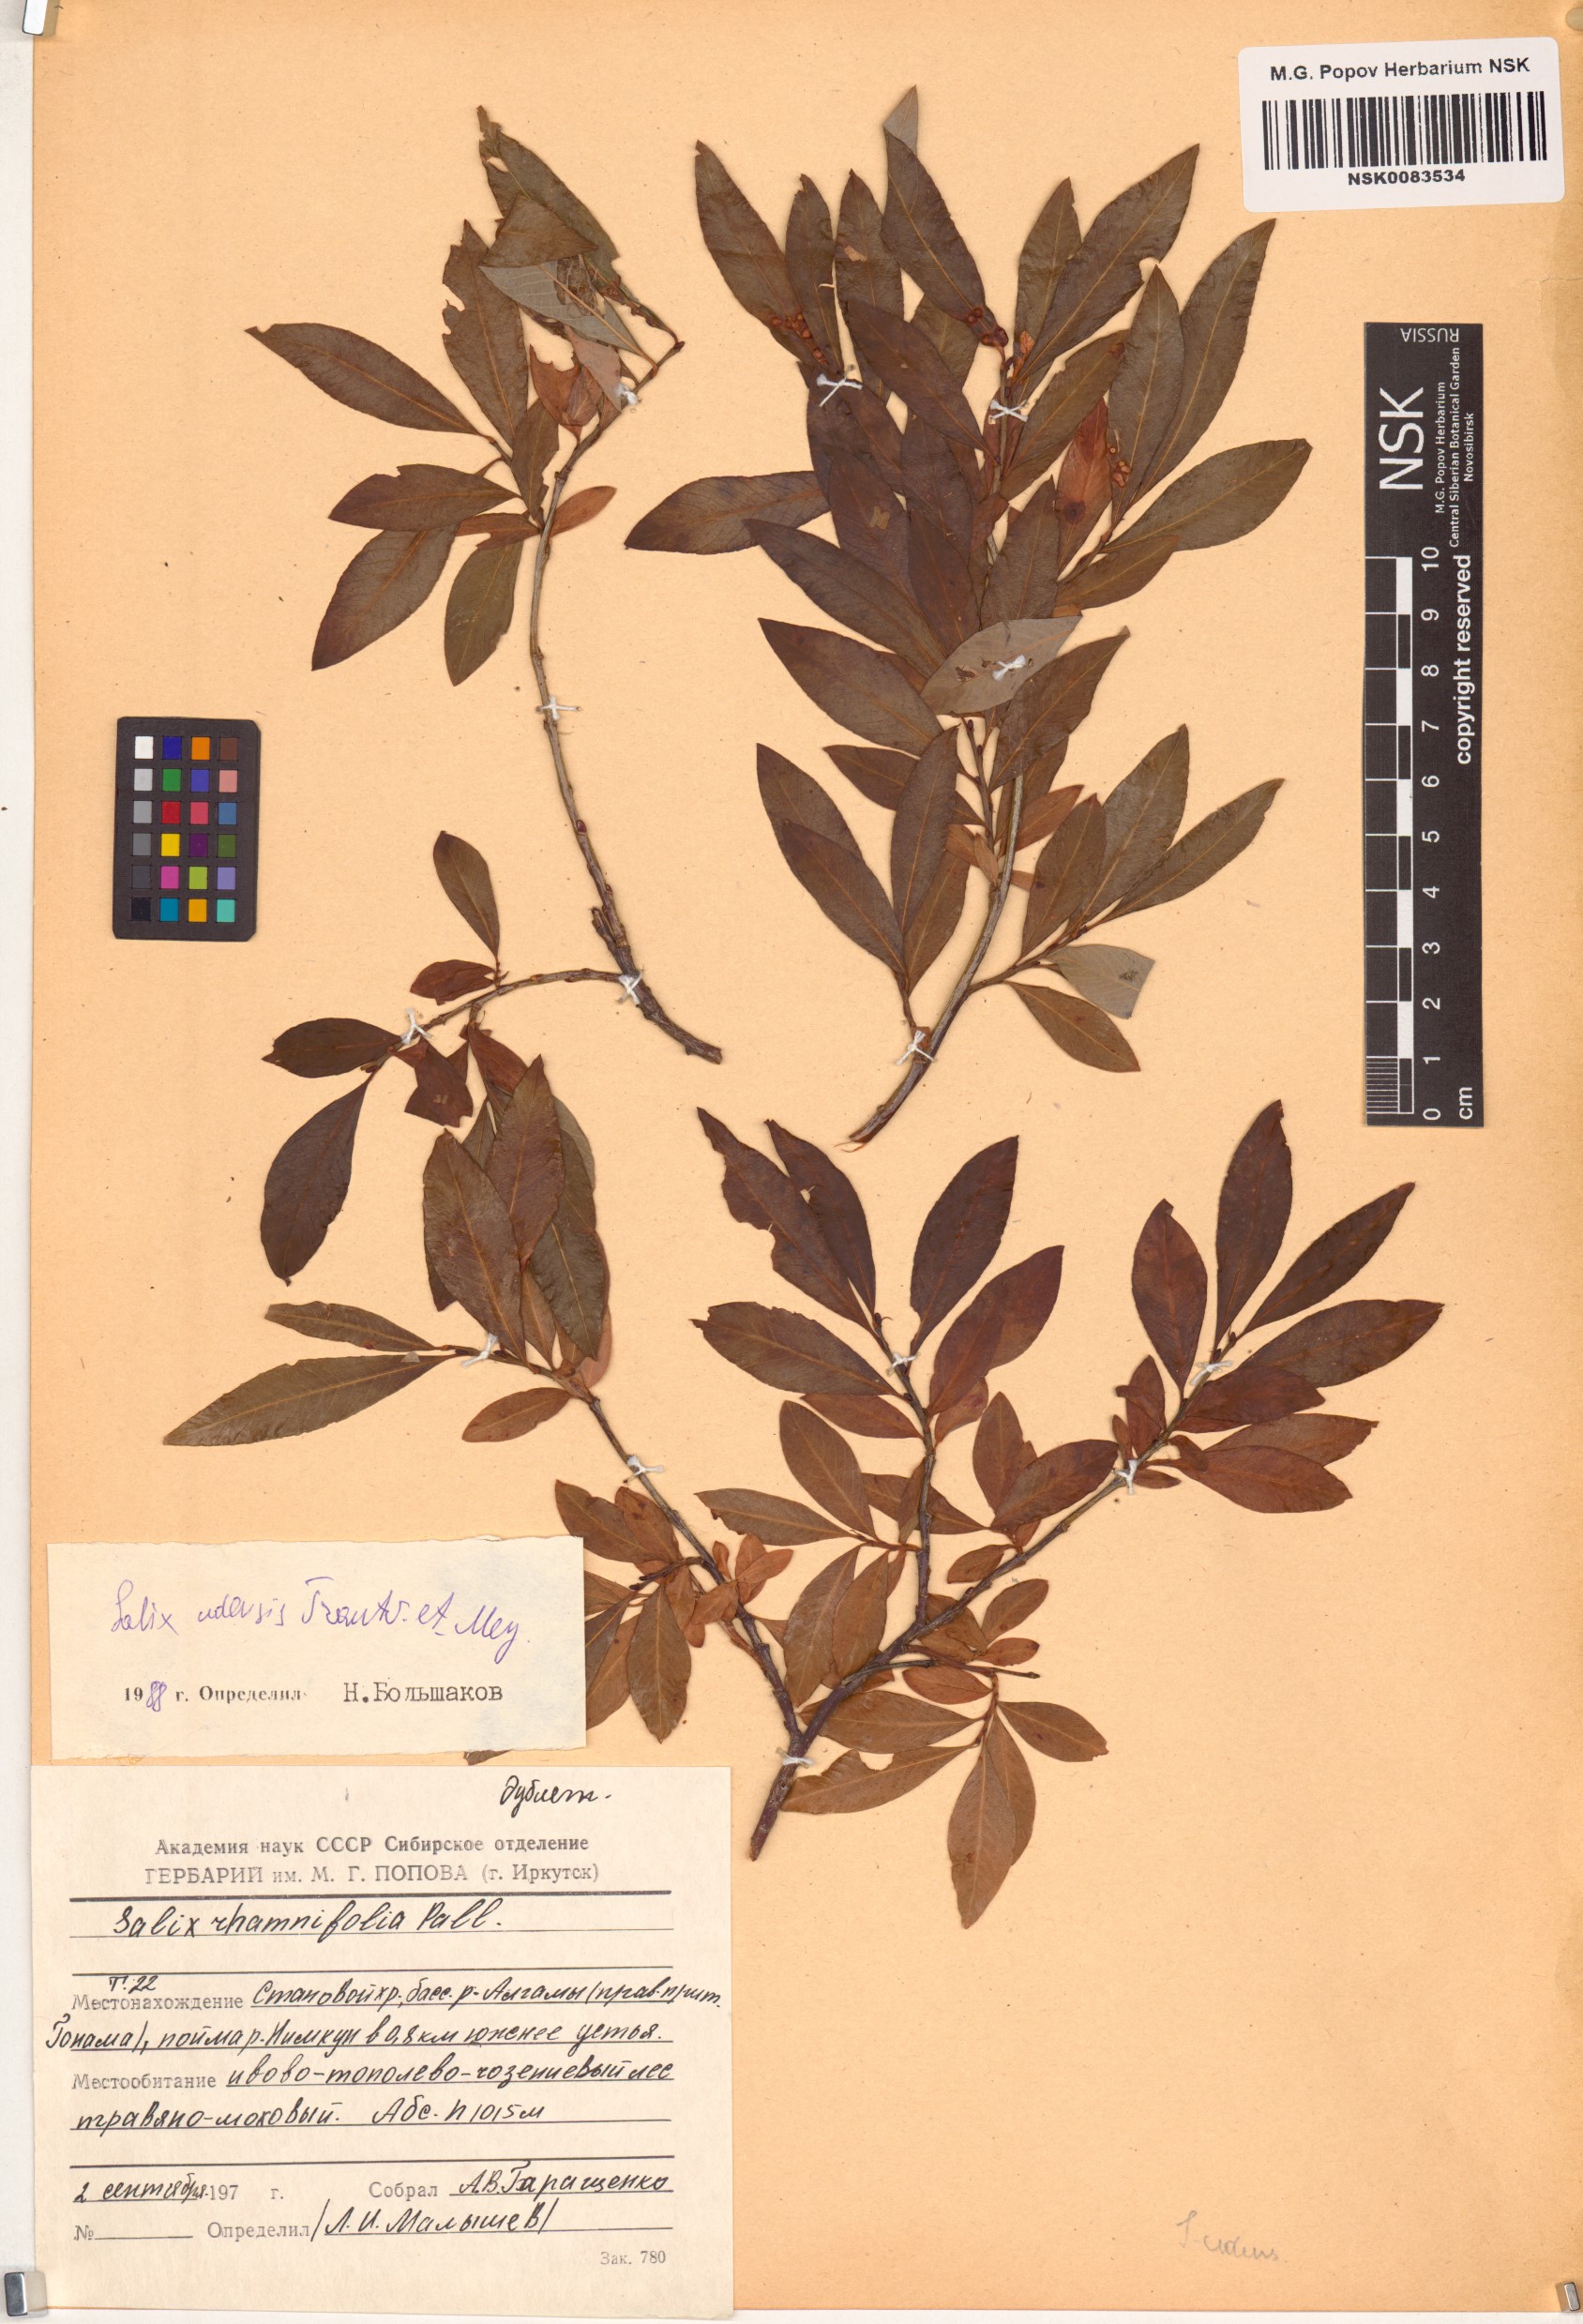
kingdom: Plantae
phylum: Tracheophyta
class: Magnoliopsida
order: Malpighiales
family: Salicaceae
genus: Salix
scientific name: Salix udensis
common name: Sachalin willow
